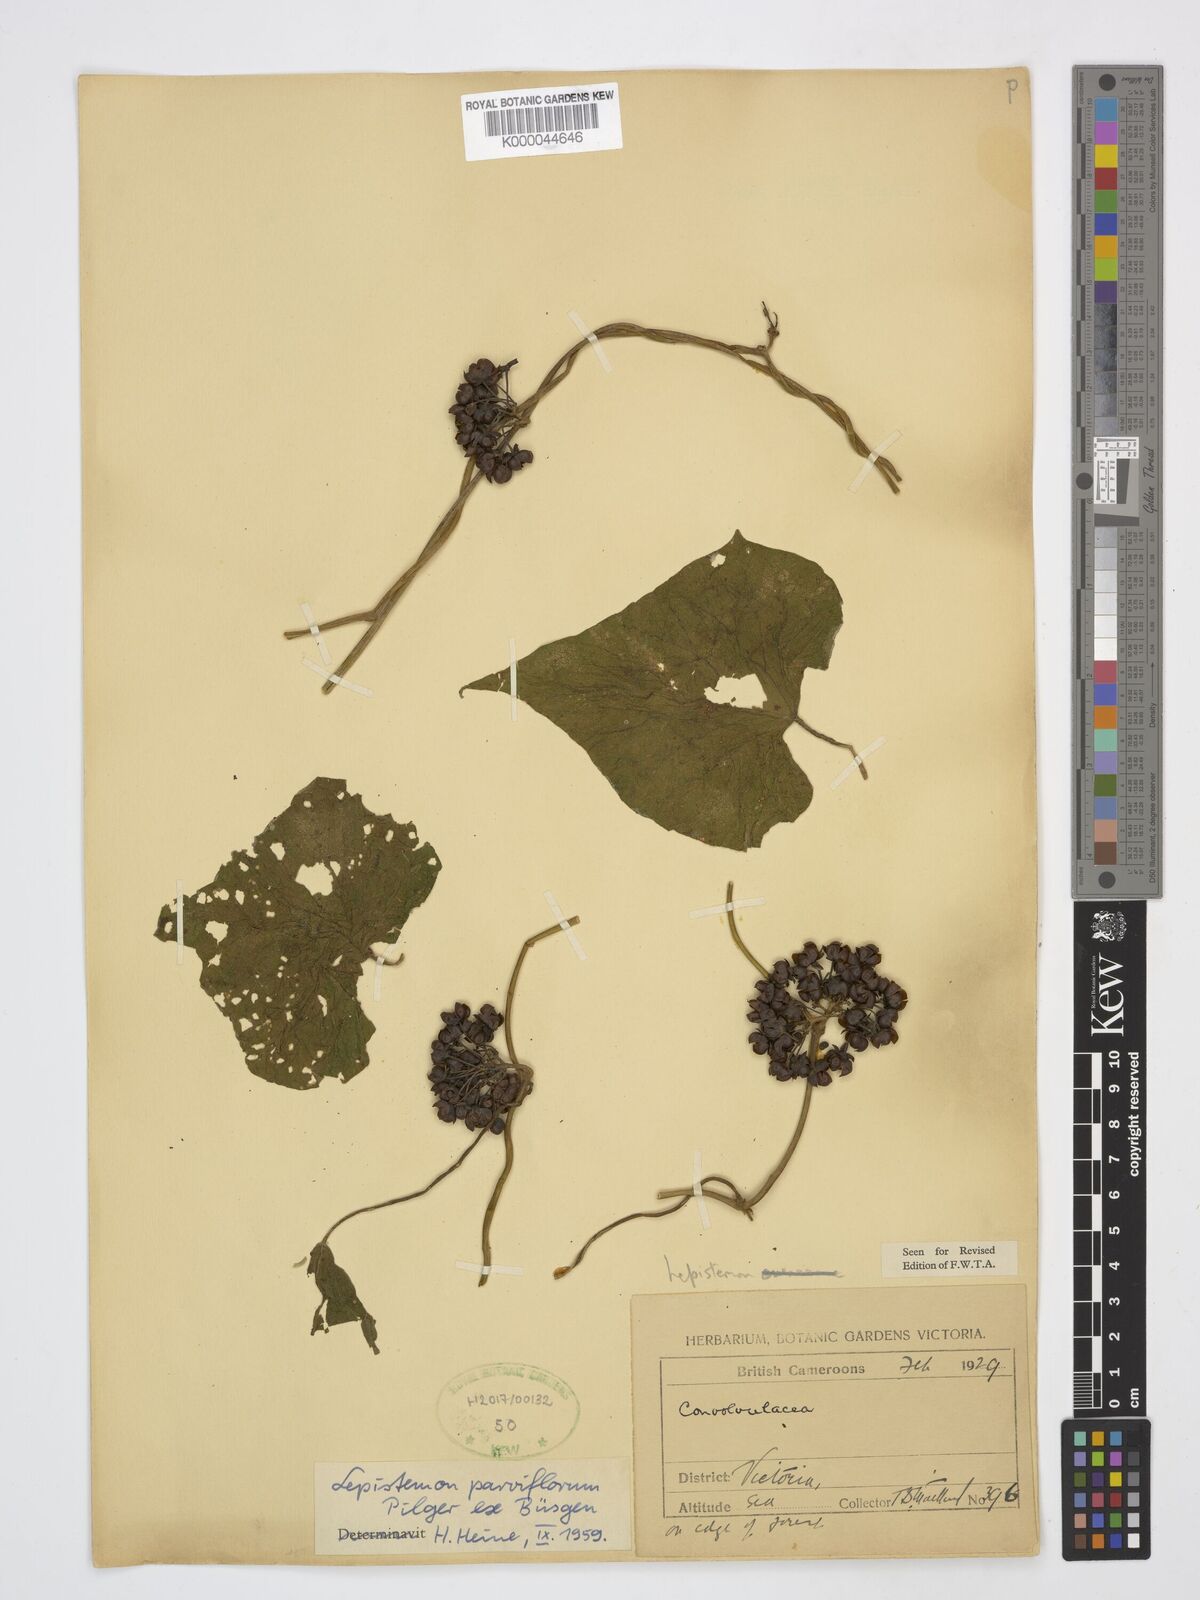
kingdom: Plantae
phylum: Tracheophyta
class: Magnoliopsida
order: Solanales
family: Convolvulaceae
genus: Lepistemon
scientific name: Lepistemon parviflorus
